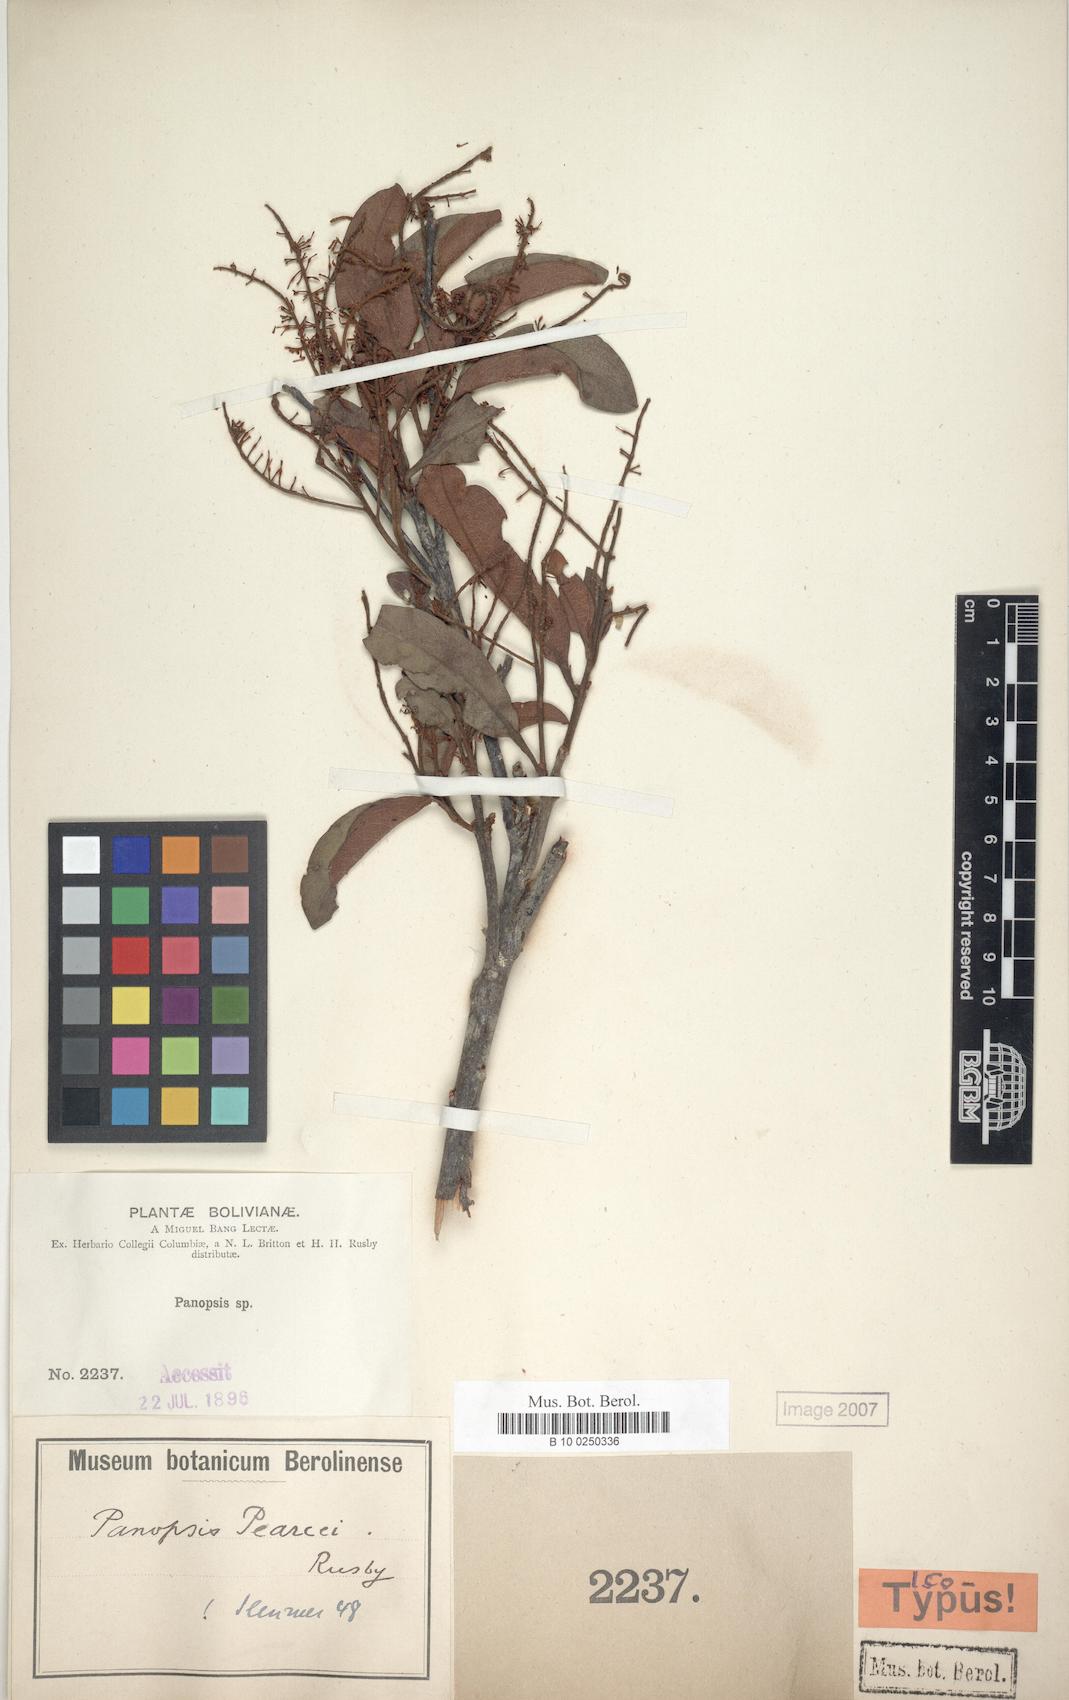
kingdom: Plantae
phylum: Tracheophyta
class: Magnoliopsida
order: Proteales
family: Proteaceae
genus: Panopsis
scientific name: Panopsis rubescens
